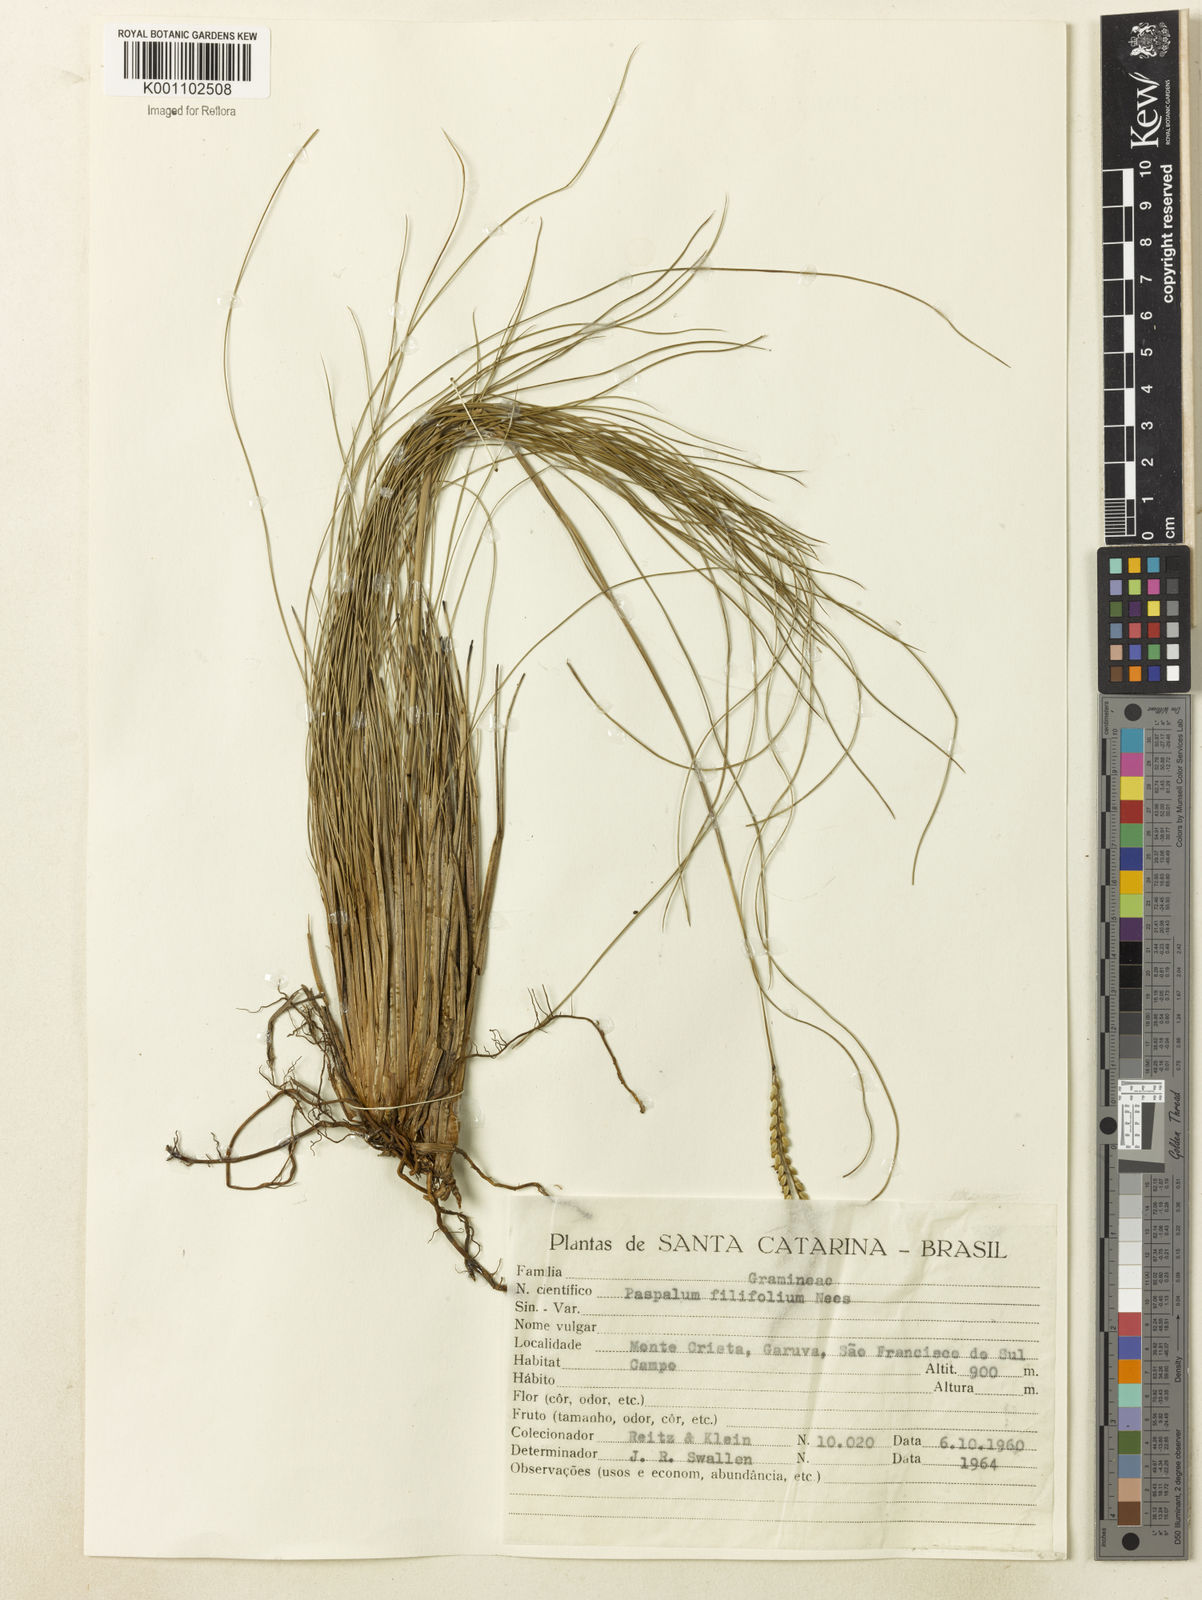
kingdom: Plantae
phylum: Tracheophyta
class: Liliopsida
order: Poales
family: Poaceae
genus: Paspalum
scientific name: Paspalum filifolium
